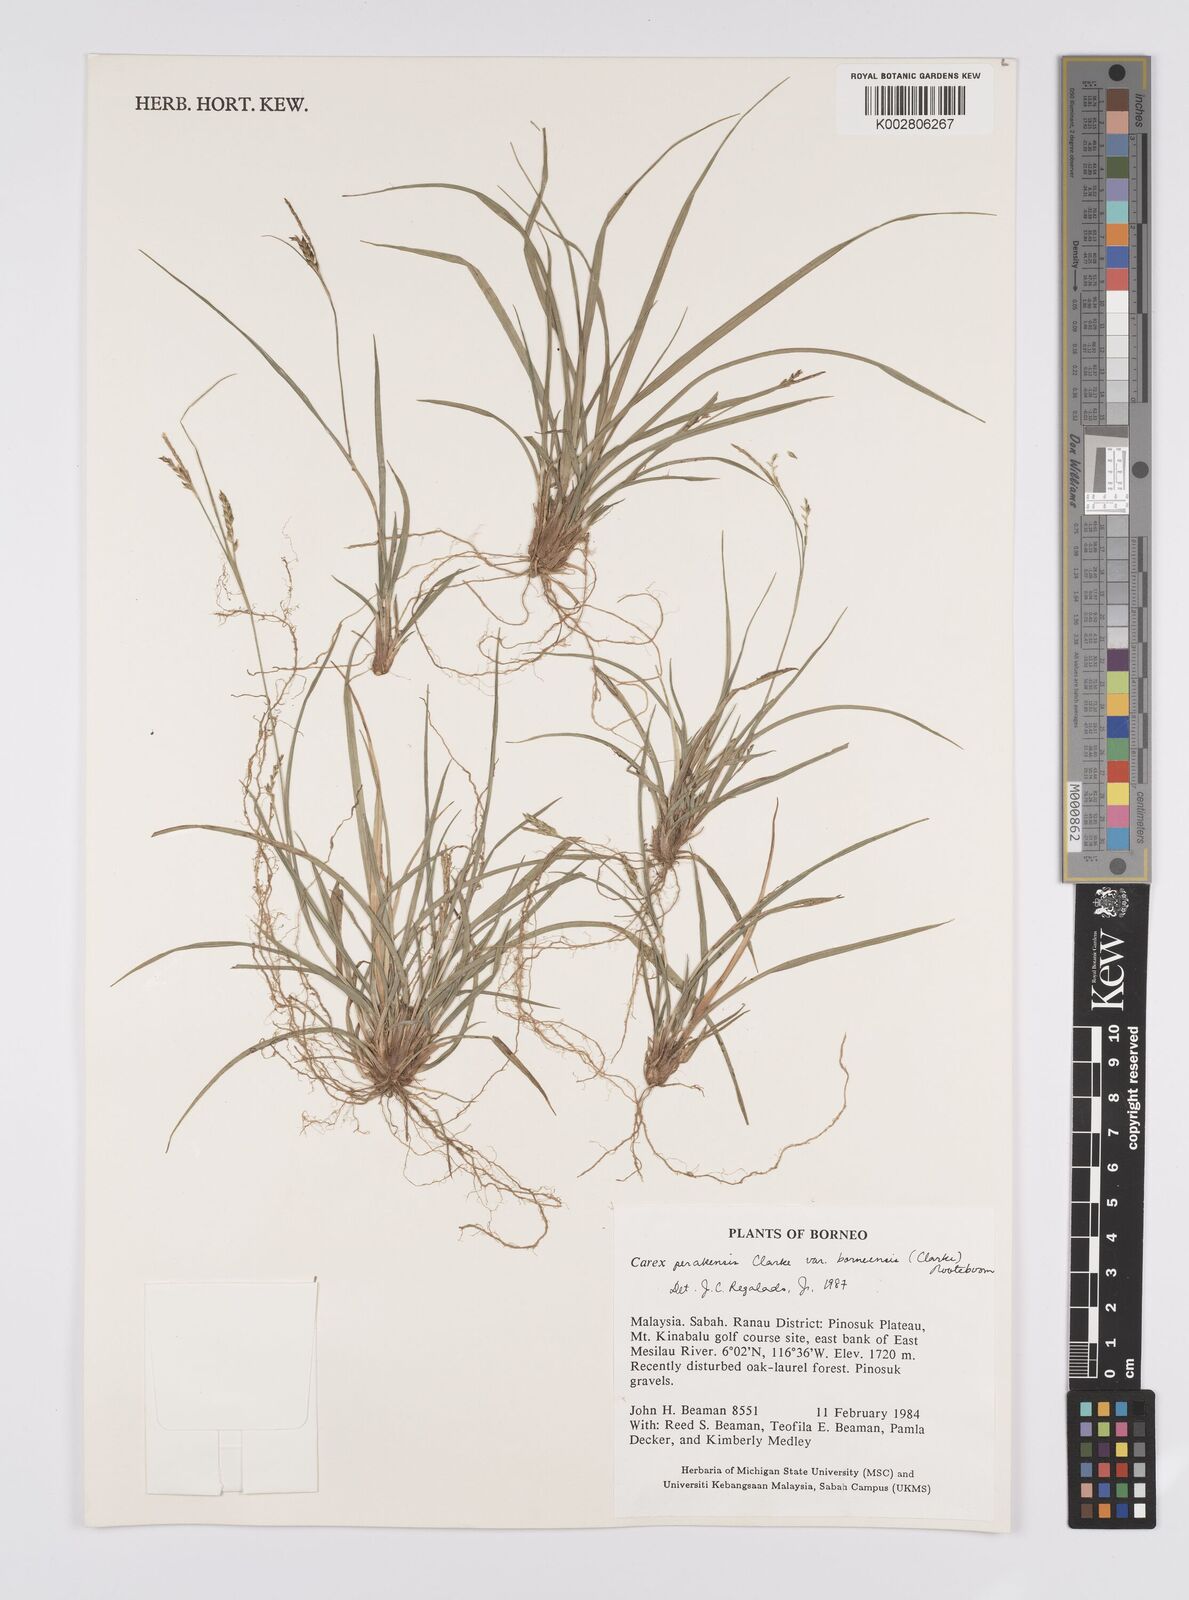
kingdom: Plantae
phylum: Tracheophyta
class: Liliopsida
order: Poales
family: Cyperaceae
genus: Carex
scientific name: Carex perakensis
